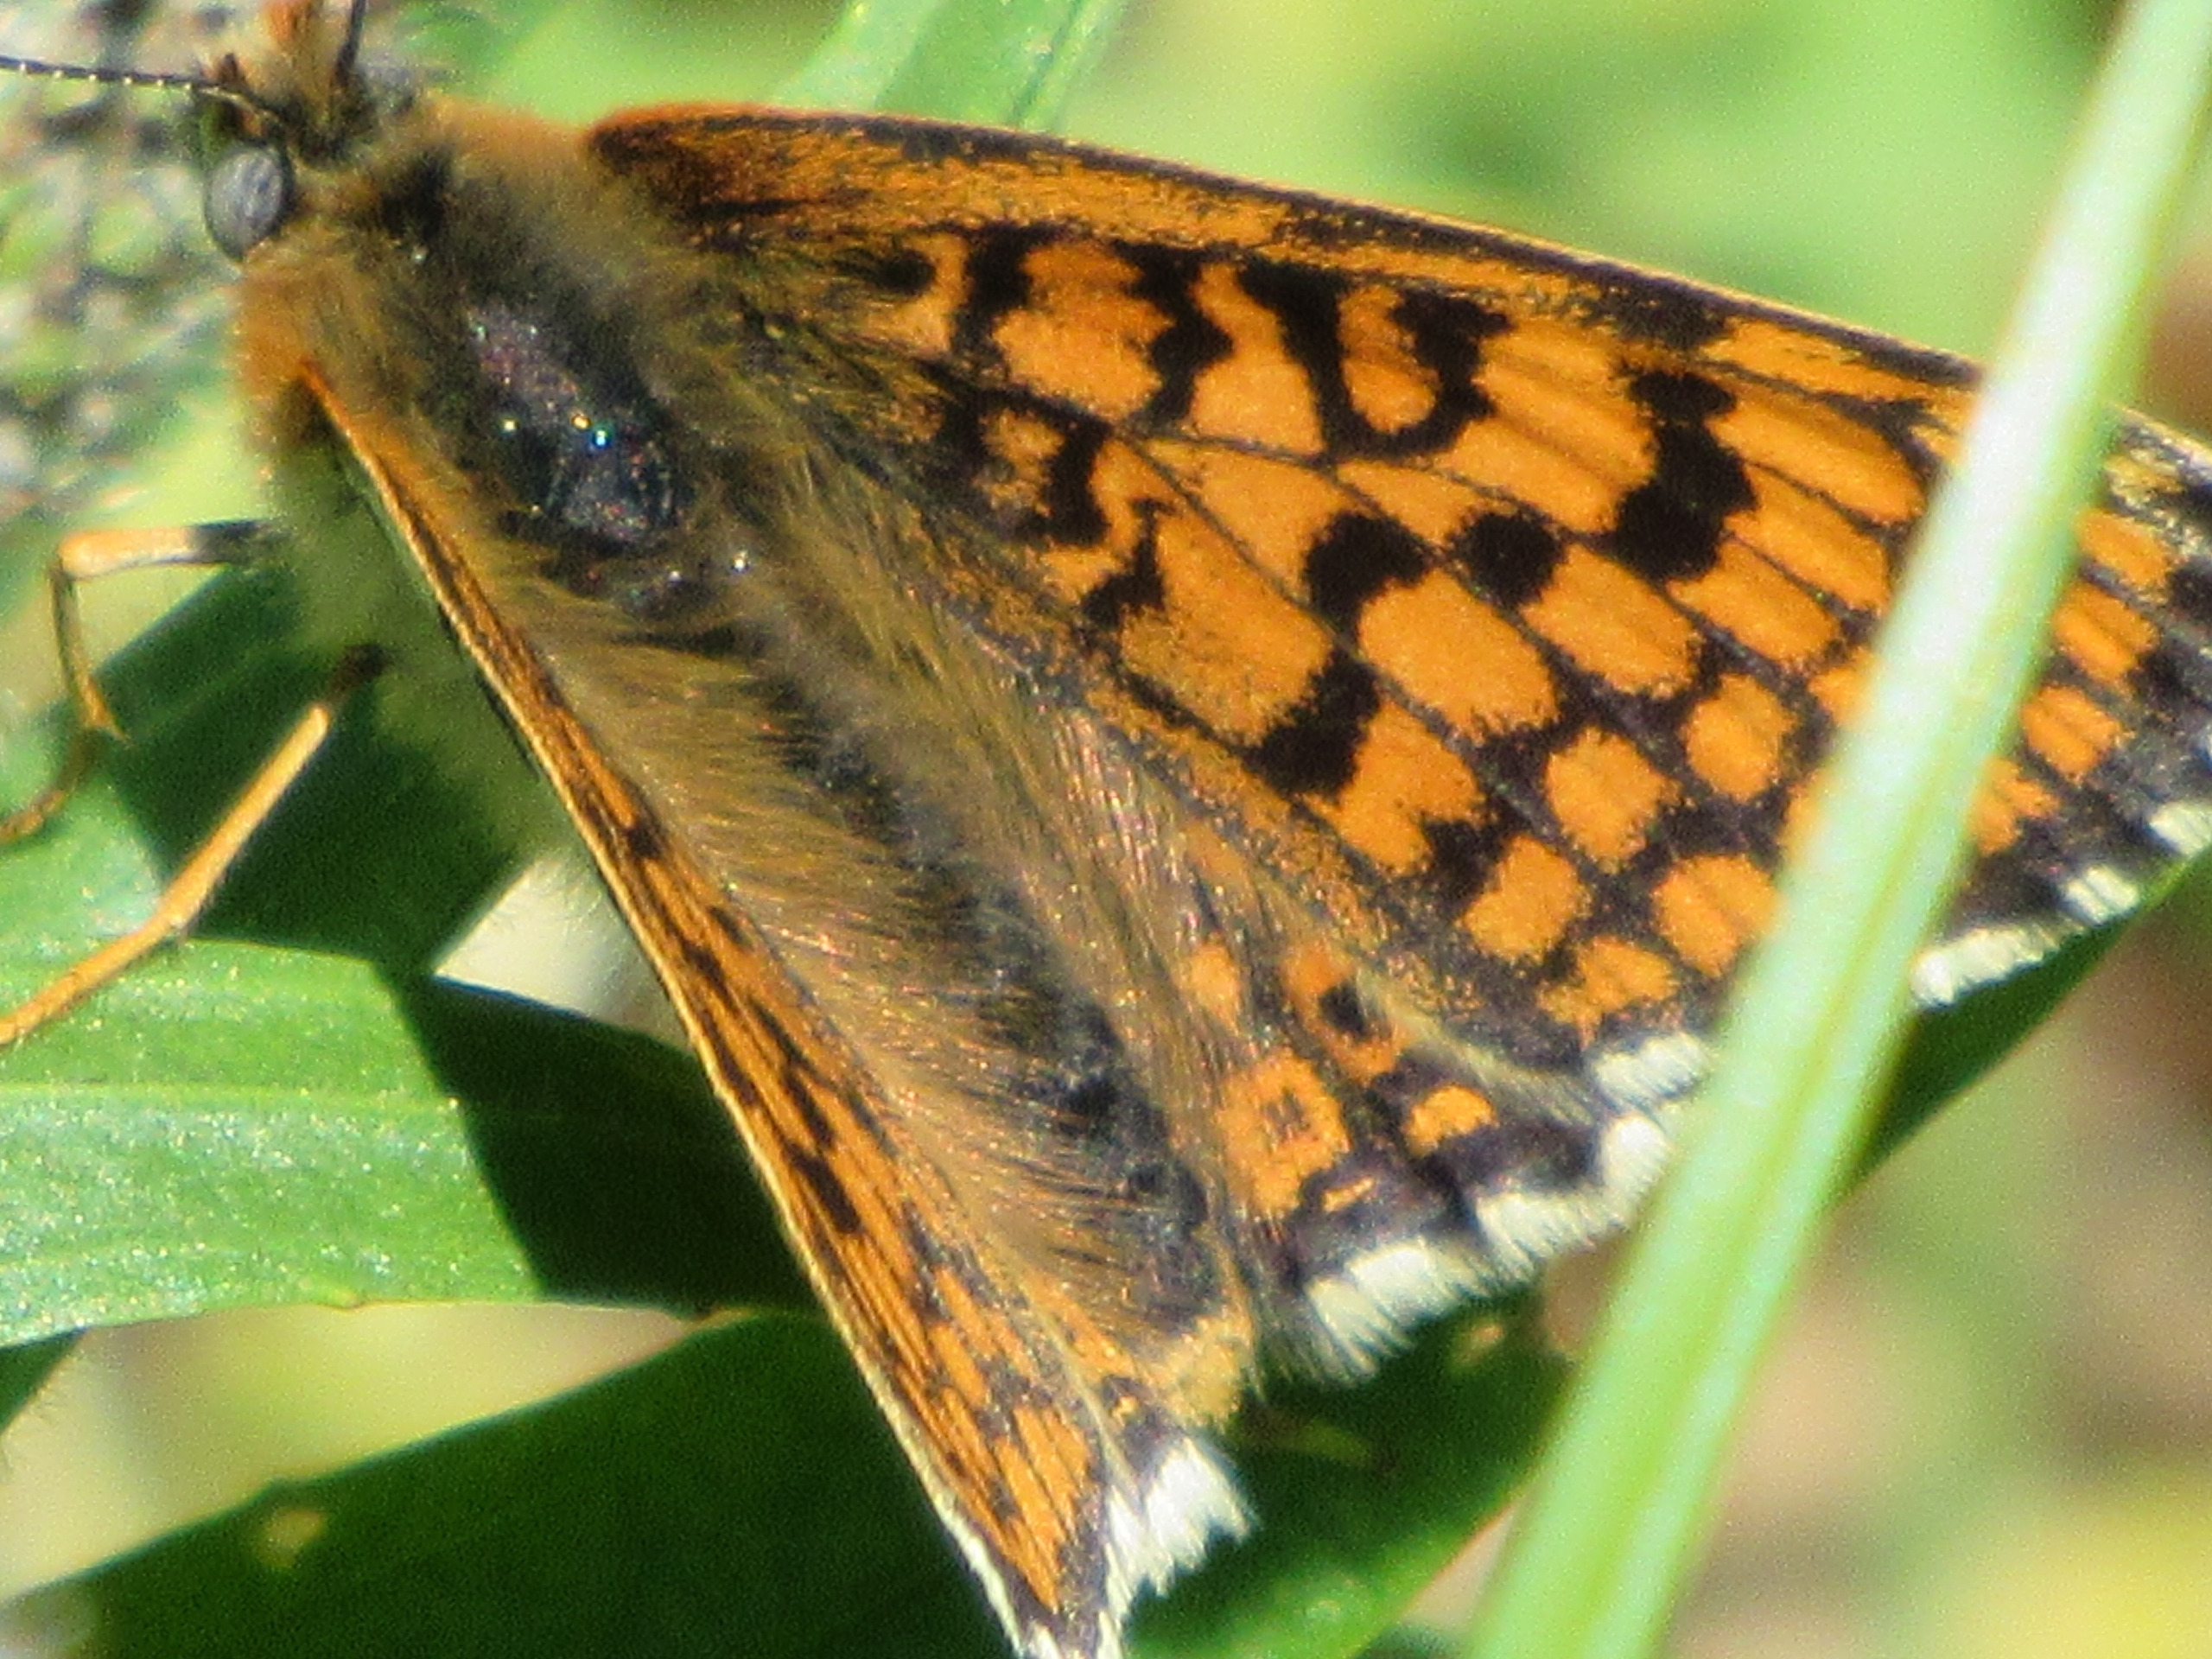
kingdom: Animalia
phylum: Arthropoda
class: Insecta
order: Lepidoptera
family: Nymphalidae
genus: Melitaea
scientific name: Melitaea cinxia
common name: Okkergul pletvinge
